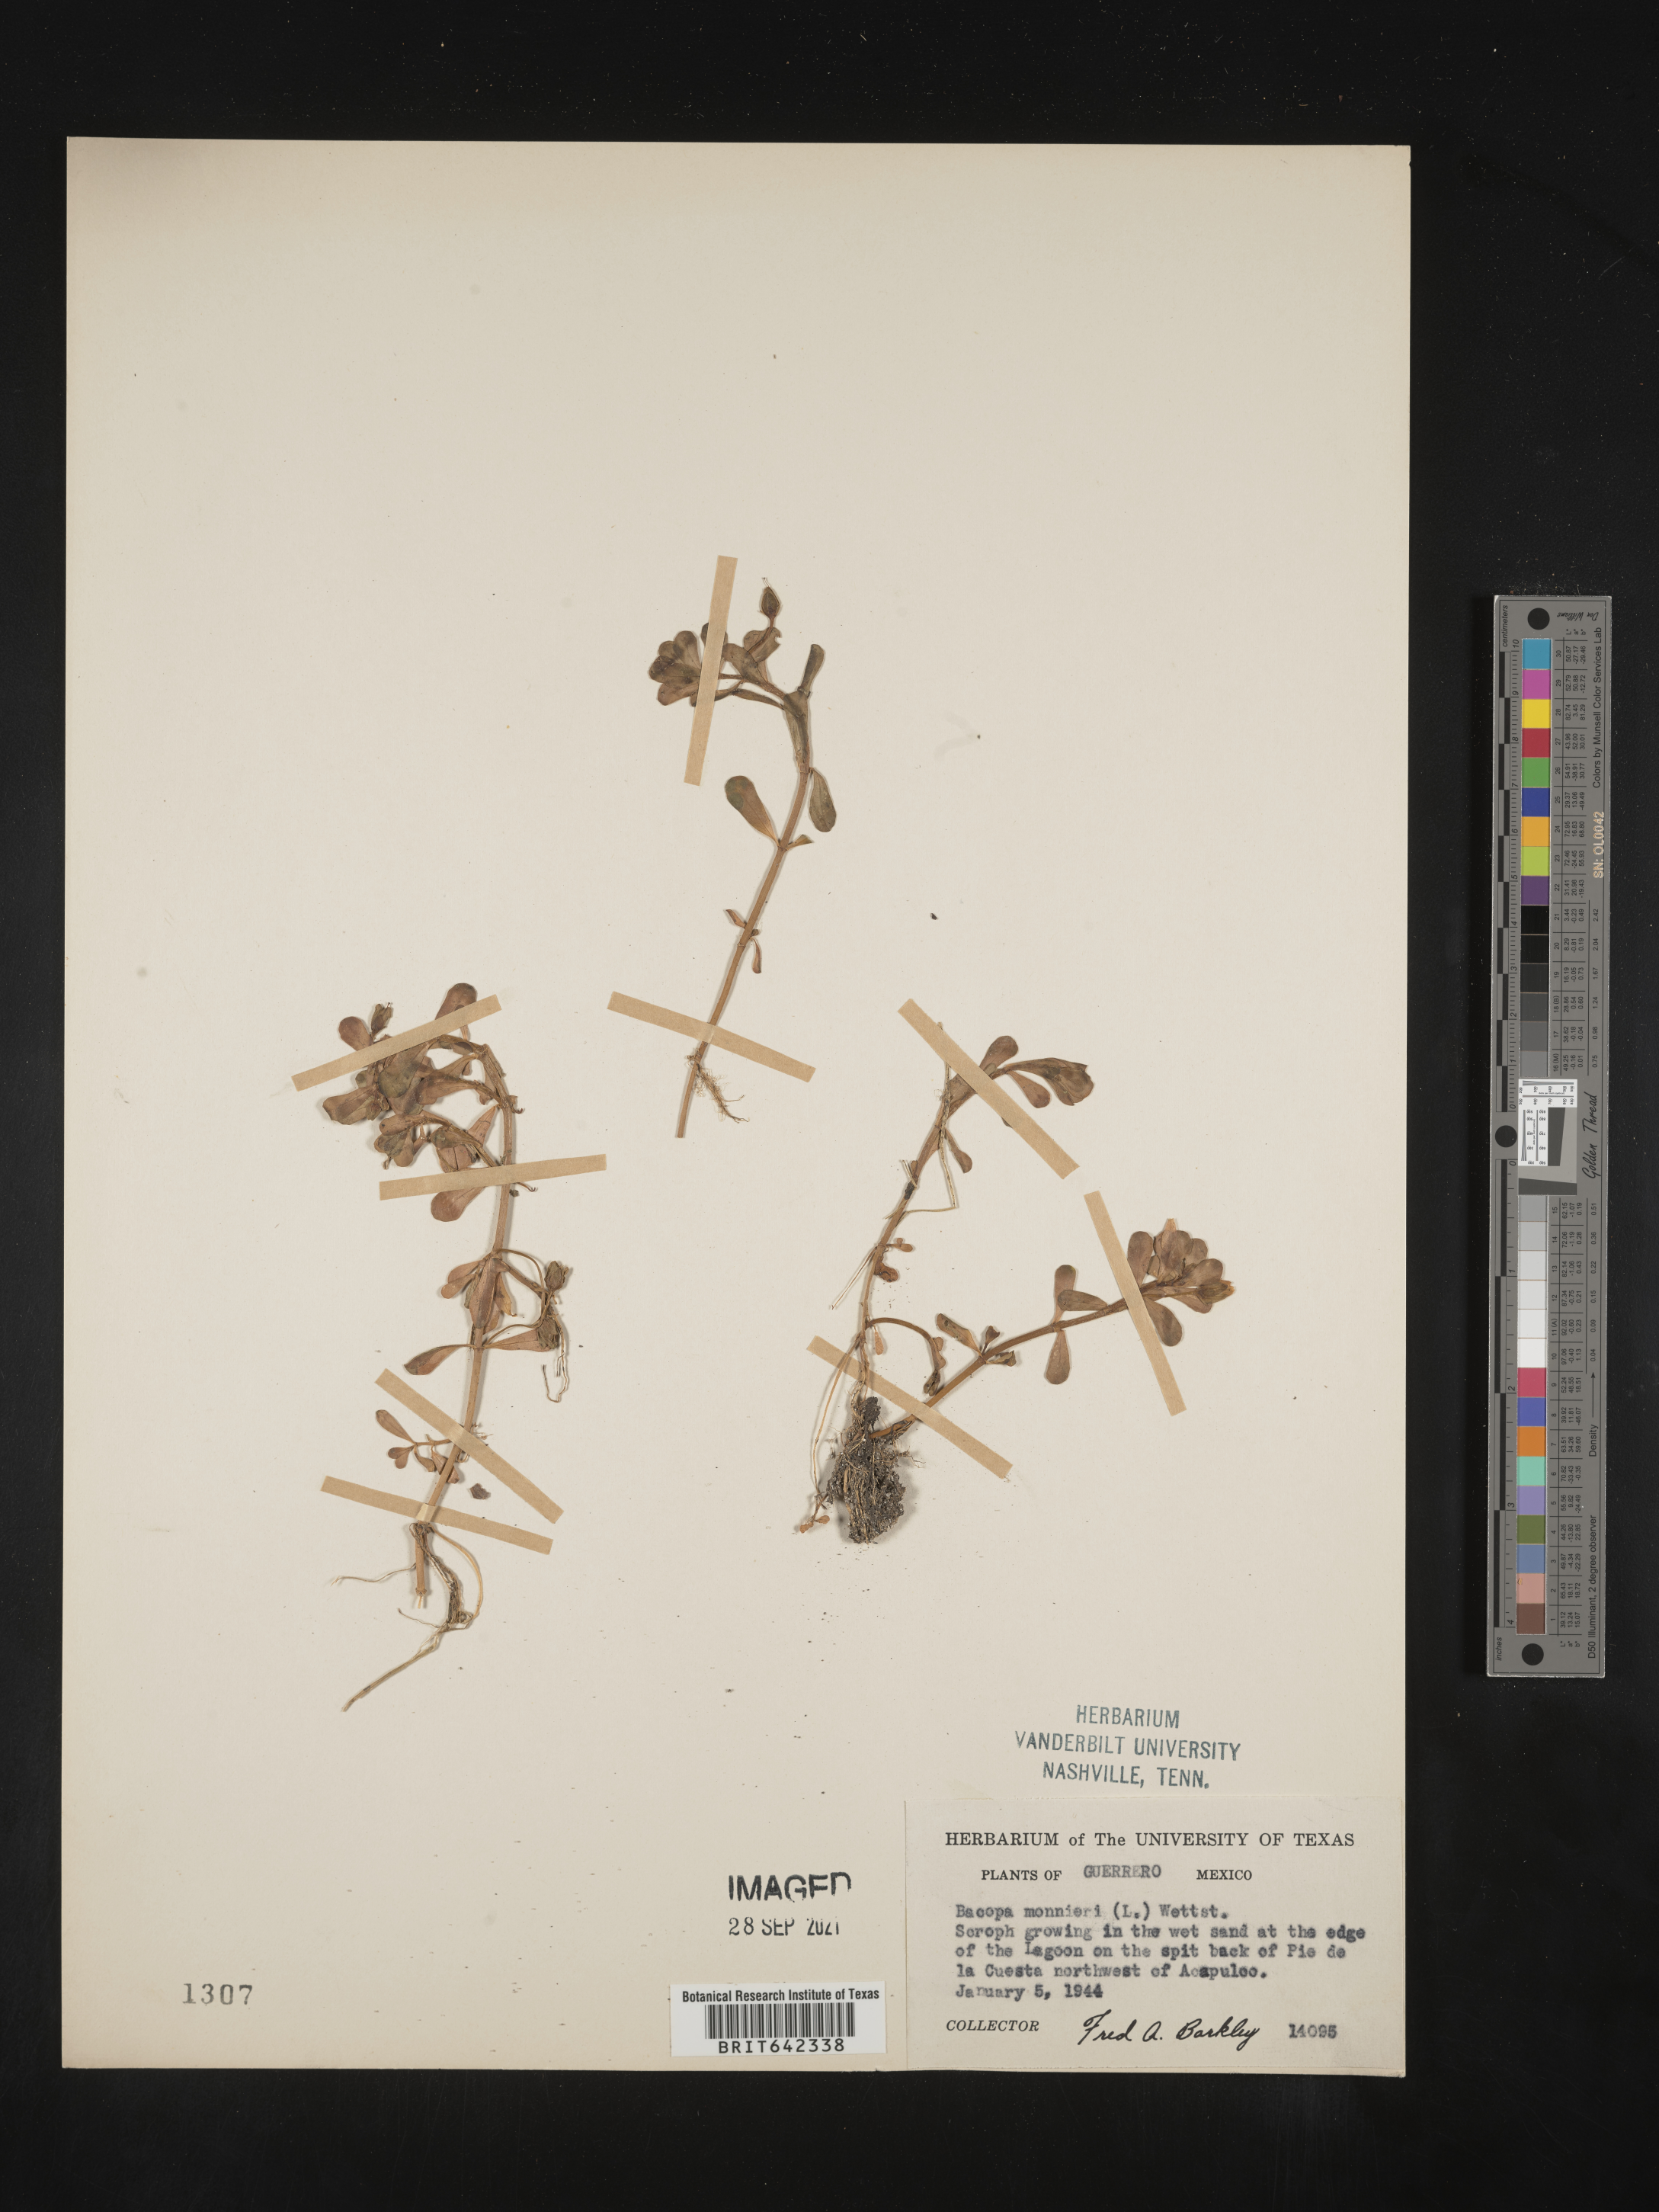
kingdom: Plantae
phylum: Tracheophyta
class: Magnoliopsida
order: Lamiales
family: Plantaginaceae
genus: Bacopa
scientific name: Bacopa
